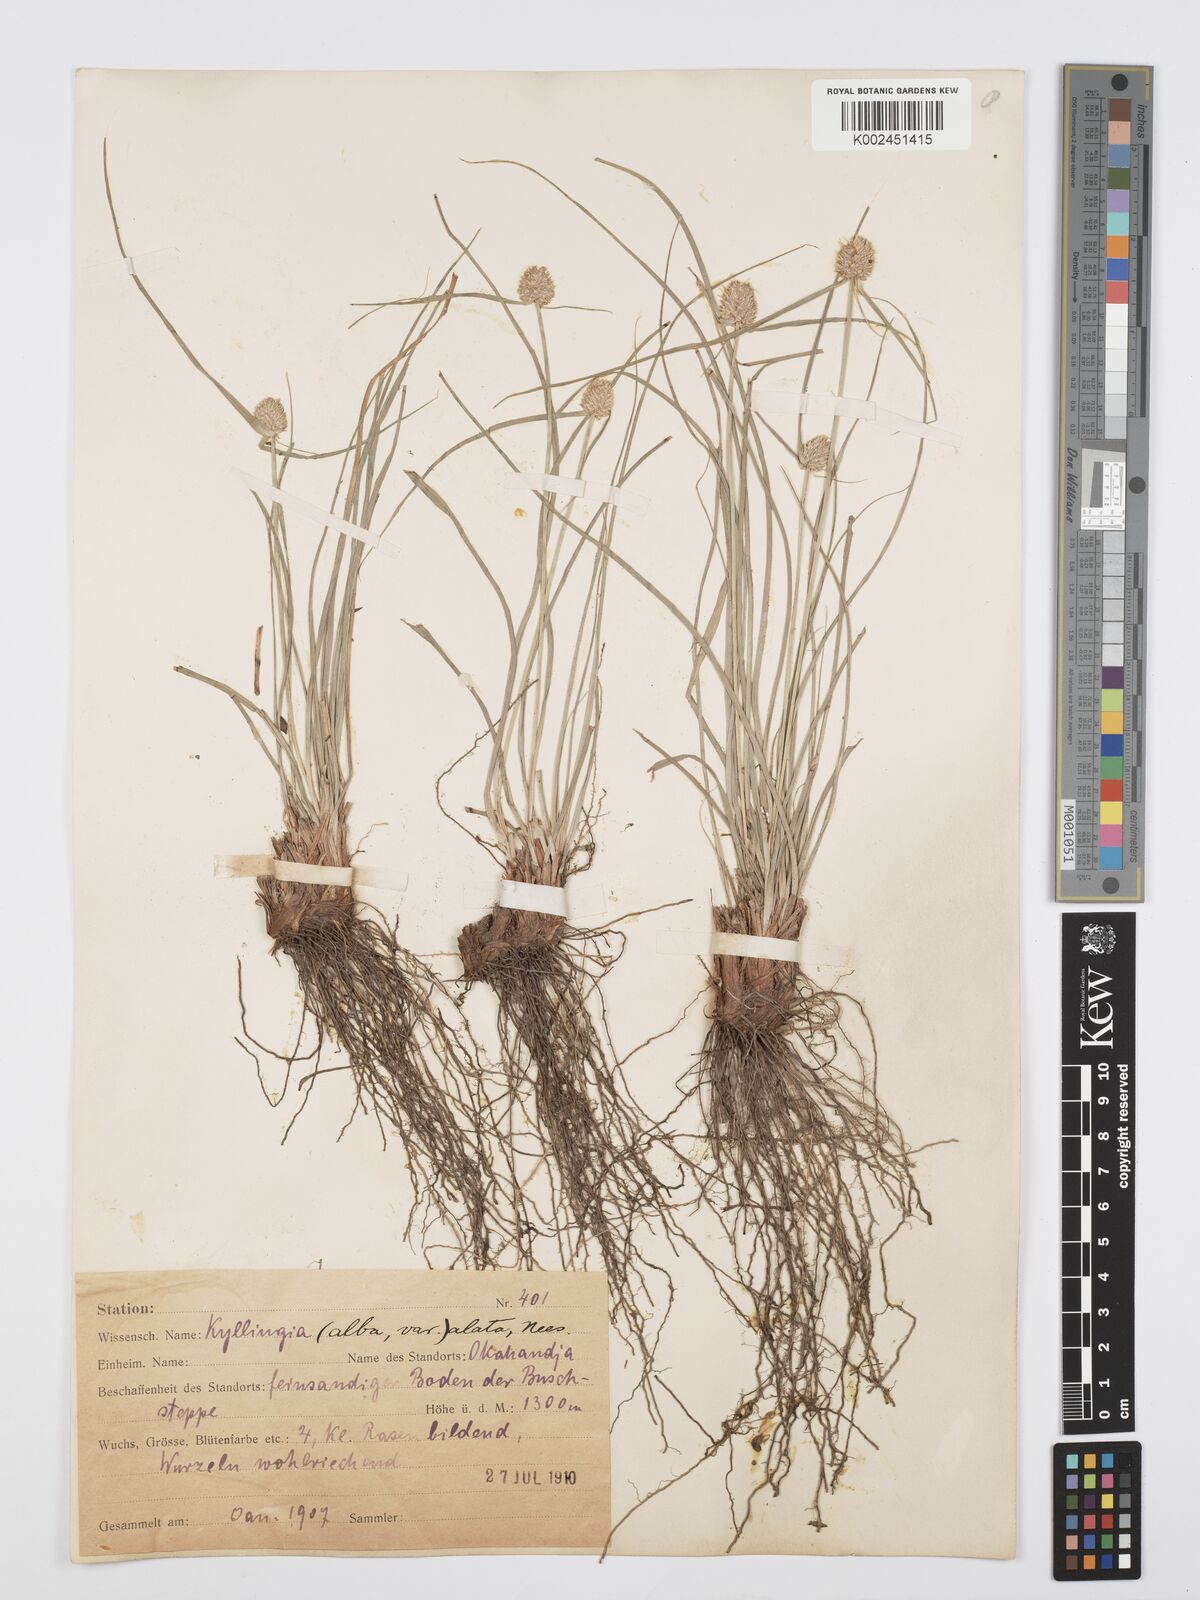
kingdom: Plantae
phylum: Tracheophyta
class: Liliopsida
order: Poales
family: Cyperaceae
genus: Cyperus
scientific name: Cyperus
